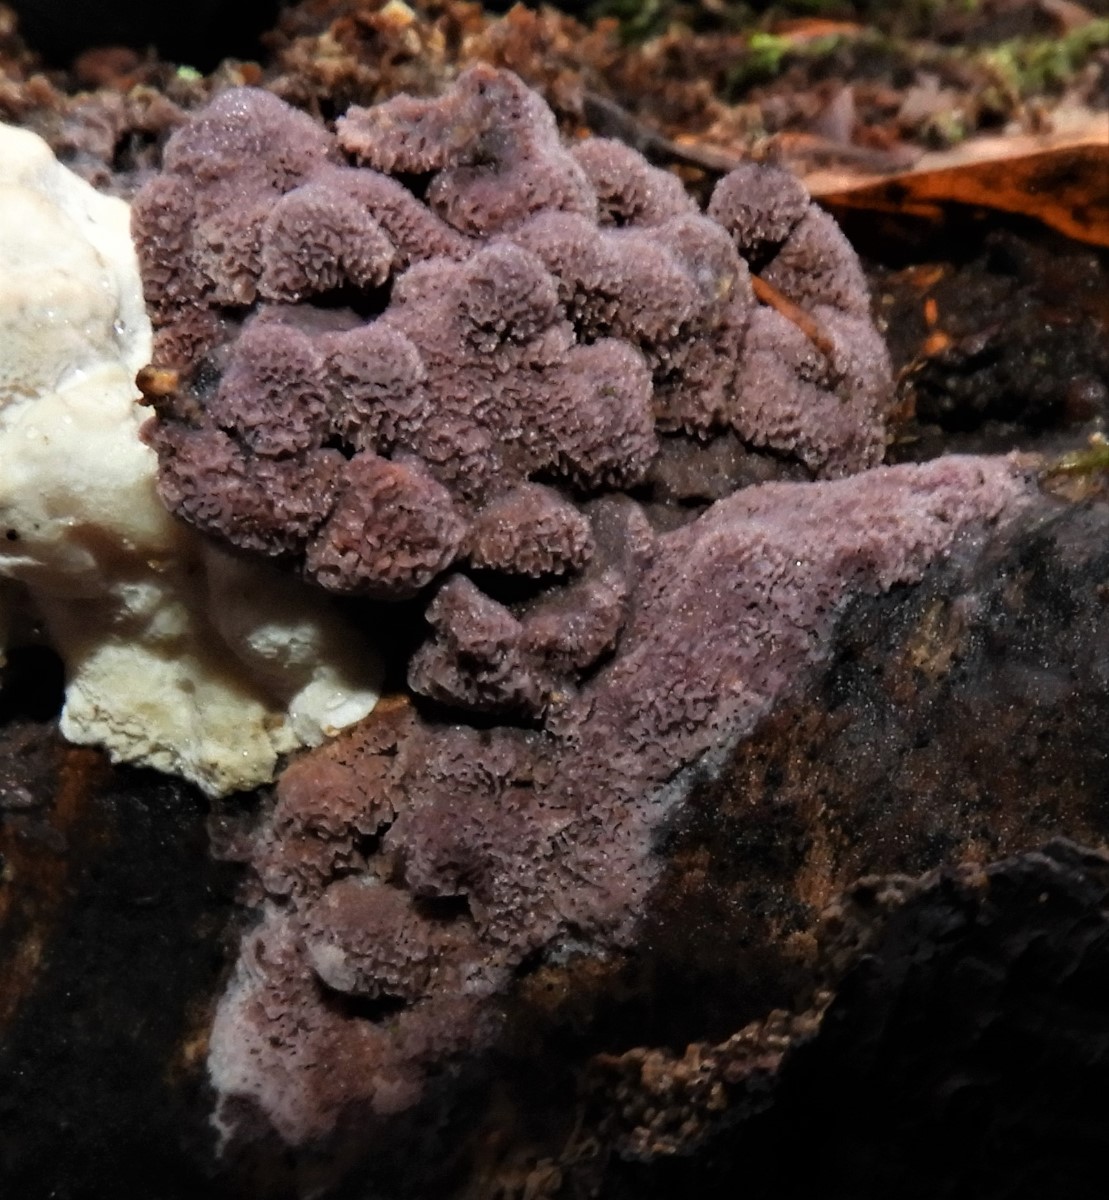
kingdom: Fungi
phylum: Basidiomycota
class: Agaricomycetes
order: Polyporales
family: Irpicaceae
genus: Ceriporia
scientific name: Ceriporia
